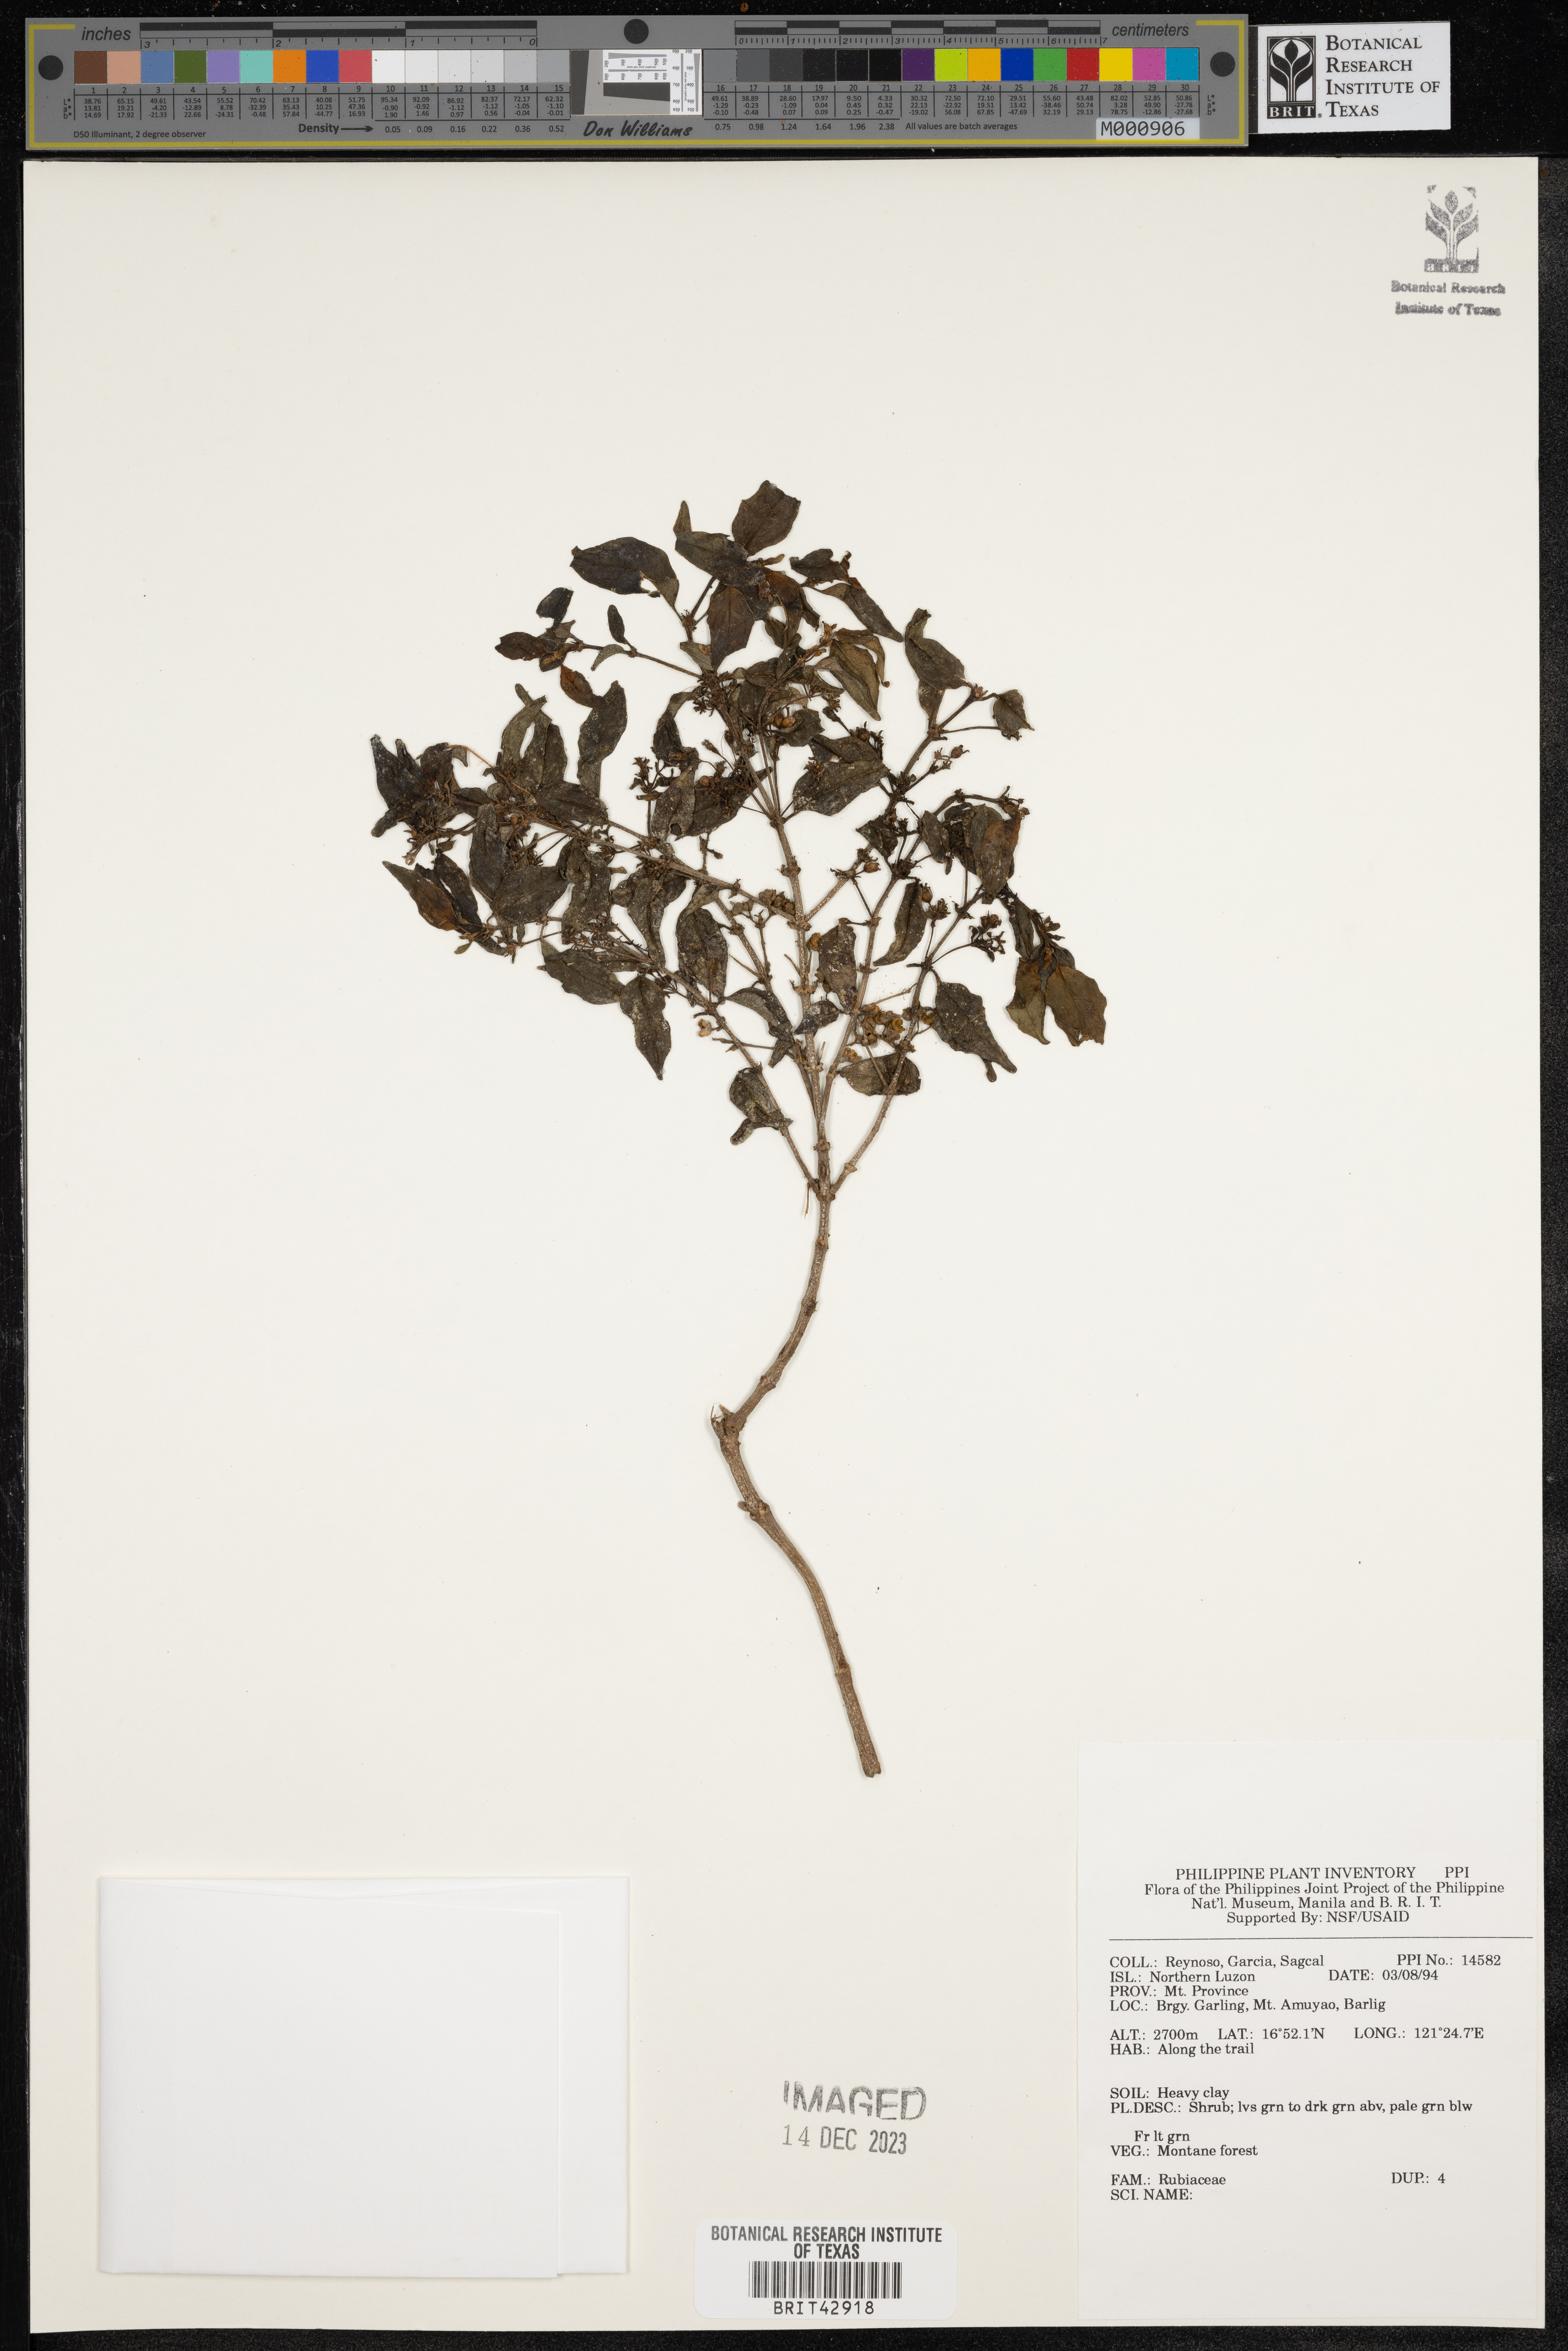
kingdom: Plantae
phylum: Tracheophyta
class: Magnoliopsida
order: Gentianales
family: Rubiaceae
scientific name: Rubiaceae
